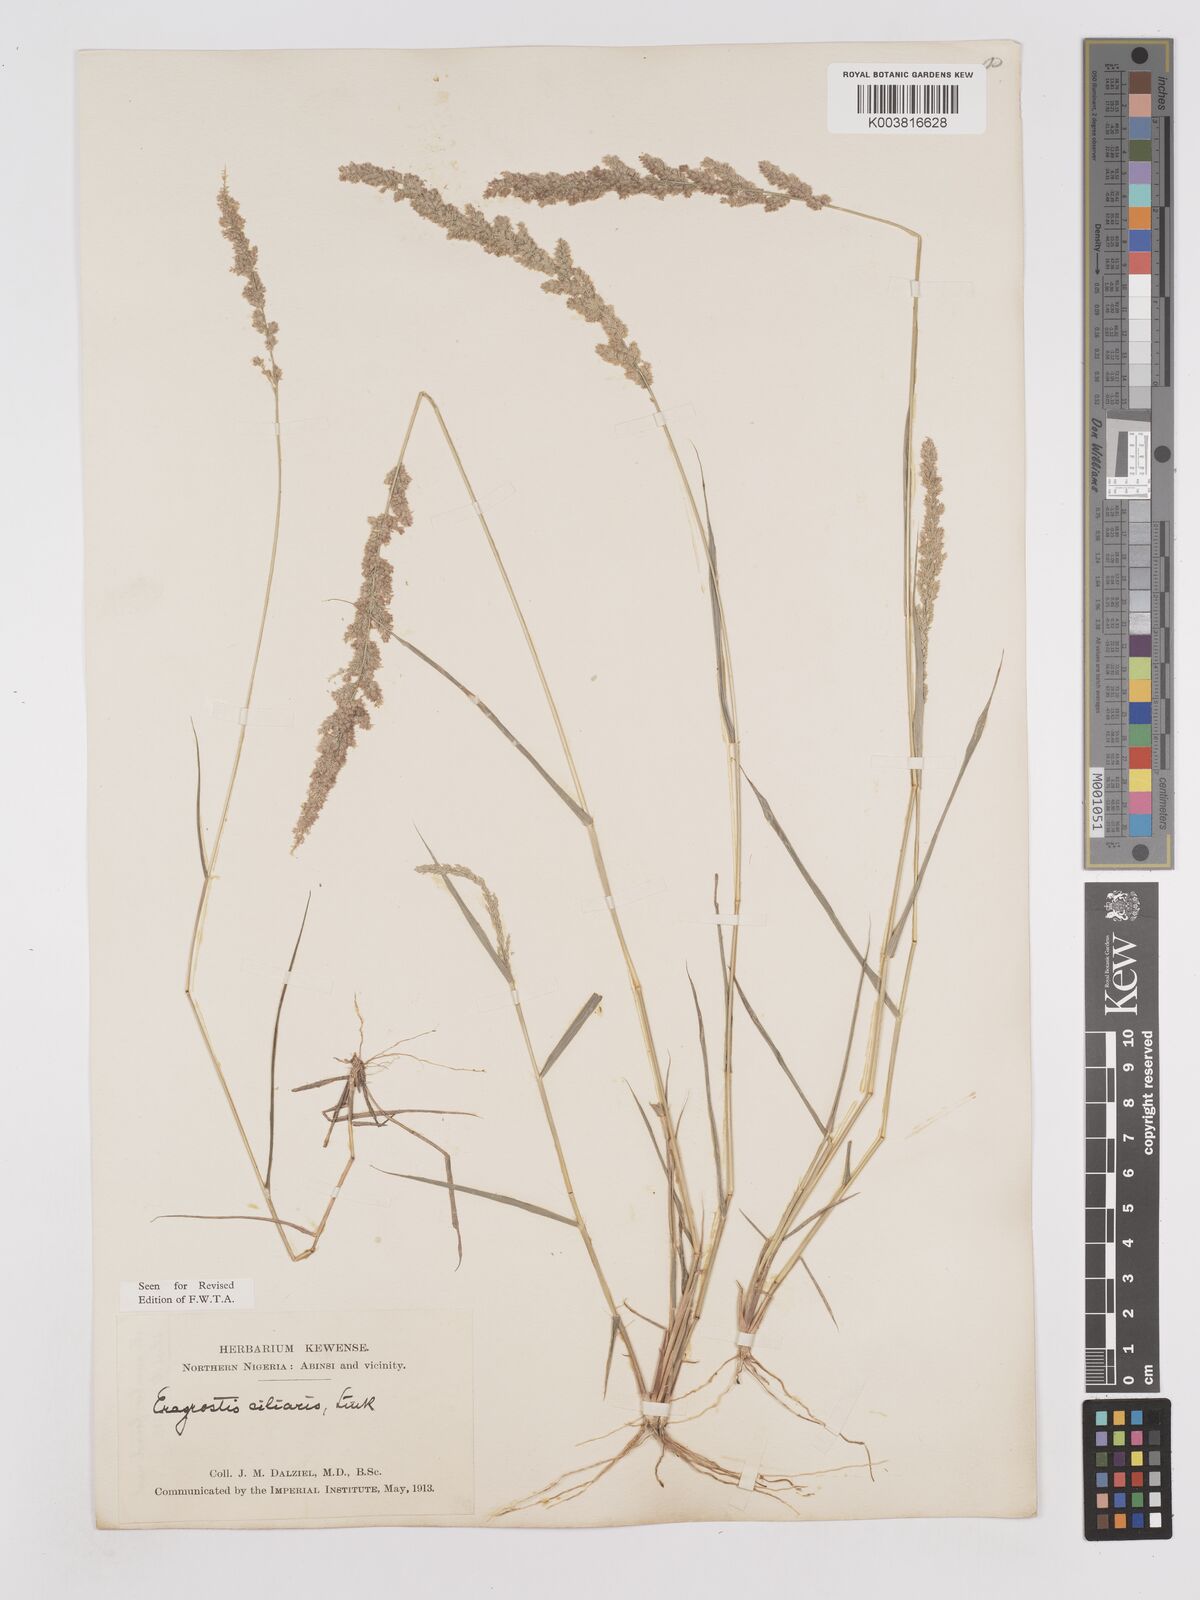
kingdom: Plantae
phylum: Tracheophyta
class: Liliopsida
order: Poales
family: Poaceae
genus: Eragrostis
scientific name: Eragrostis ciliaris
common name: Gophertail lovegrass
